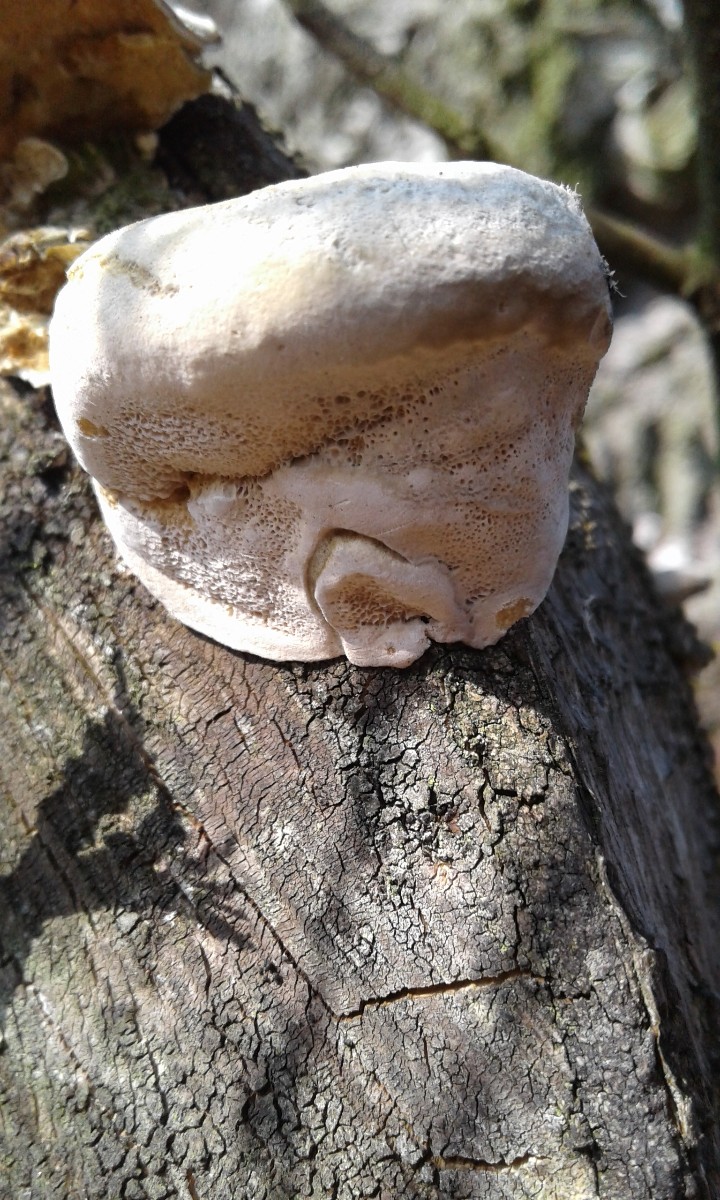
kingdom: Fungi
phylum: Basidiomycota
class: Agaricomycetes
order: Polyporales
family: Fomitopsidaceae
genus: Fomitopsis
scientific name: Fomitopsis pinicola
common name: randbæltet hovporesvamp
